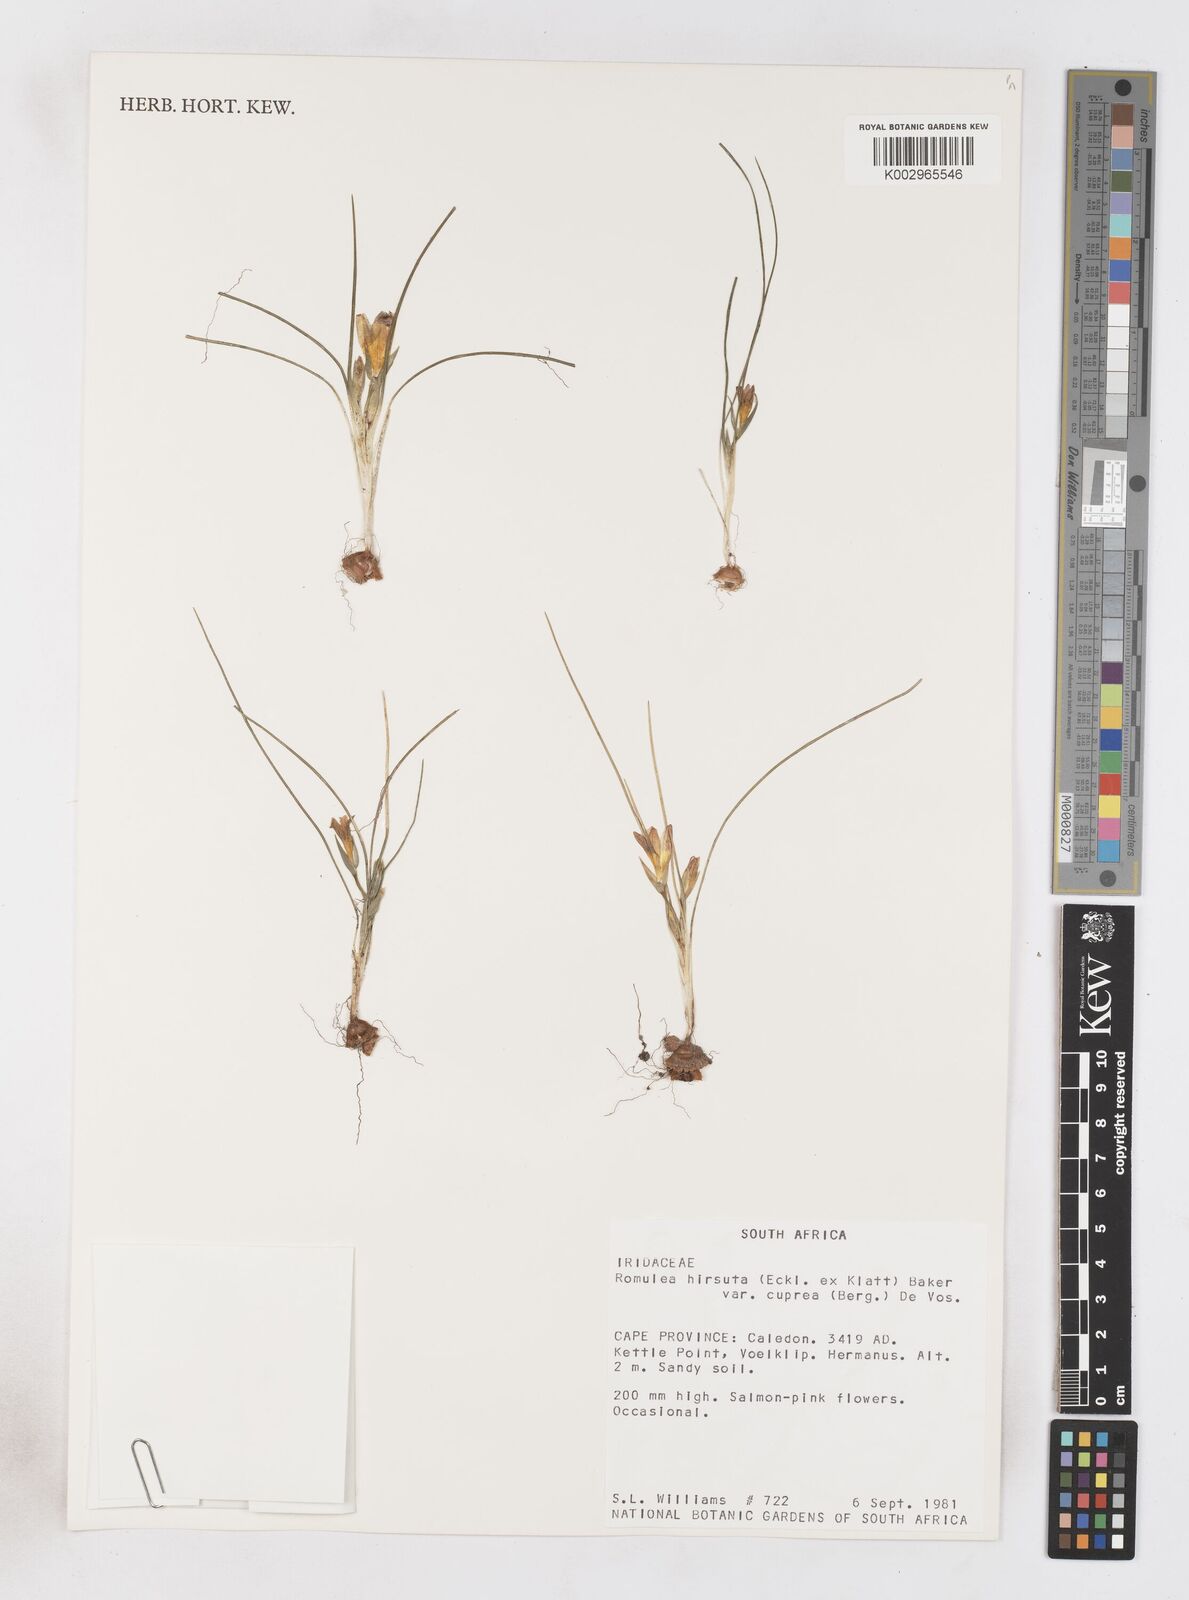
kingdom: Plantae
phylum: Tracheophyta
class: Liliopsida
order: Asparagales
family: Iridaceae
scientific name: Iridaceae
